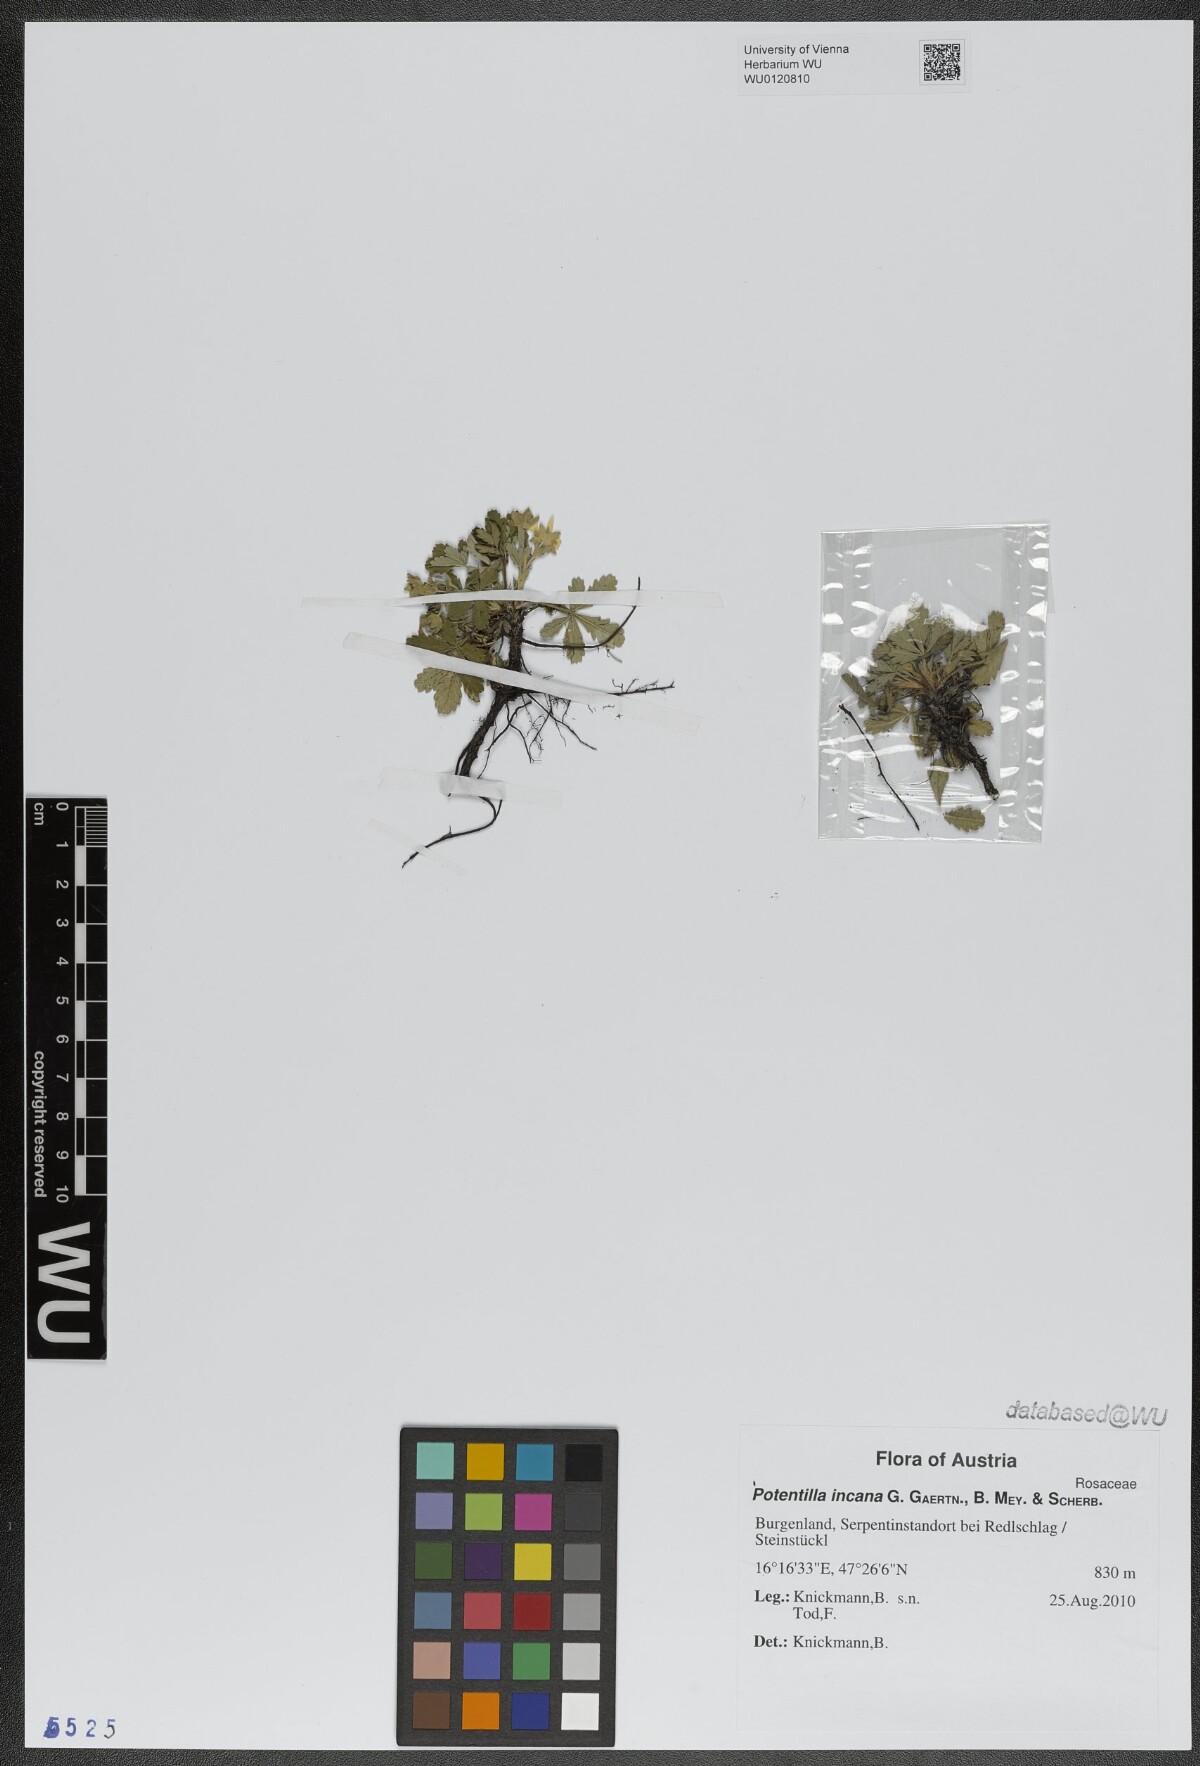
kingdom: Plantae
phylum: Tracheophyta
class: Magnoliopsida
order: Rosales
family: Rosaceae
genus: Potentilla
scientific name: Potentilla cinerea
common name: Ashy cinquefoil
